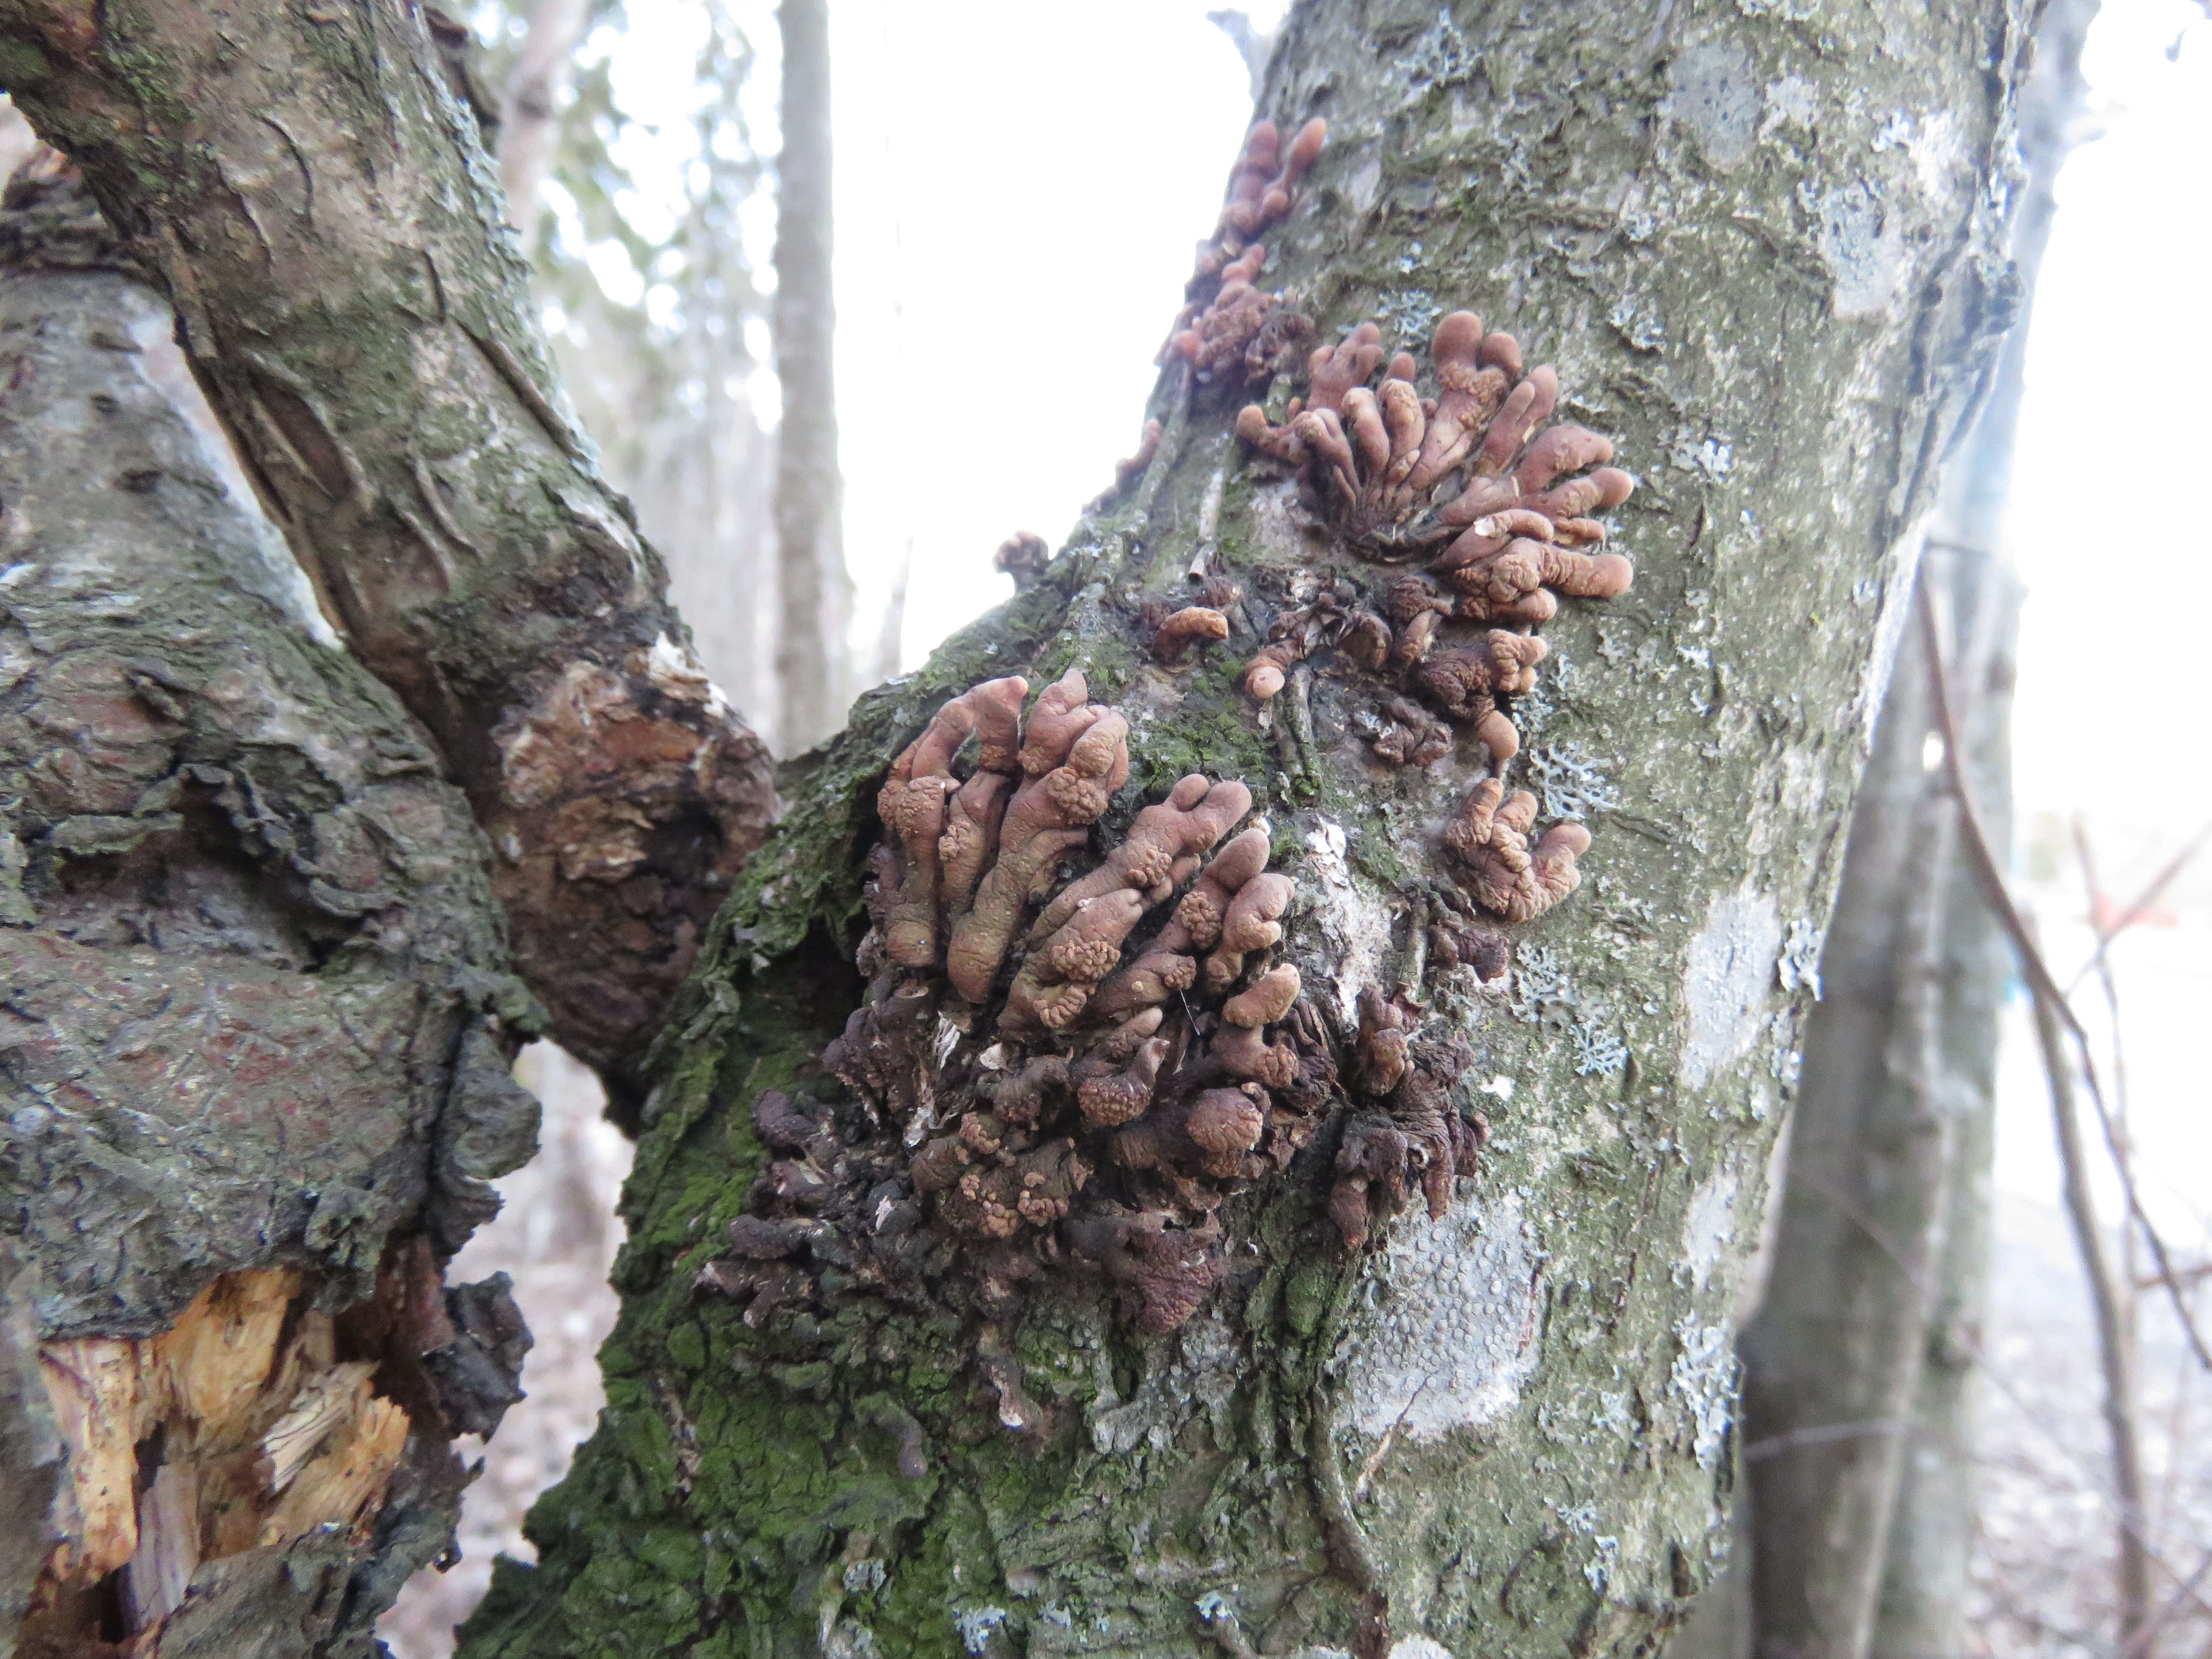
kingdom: Fungi
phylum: Ascomycota
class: Sordariomycetes
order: Hypocreales
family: Hypocreaceae
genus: Hypocreopsis
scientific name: Hypocreopsis lichenoides
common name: Willow gloves
